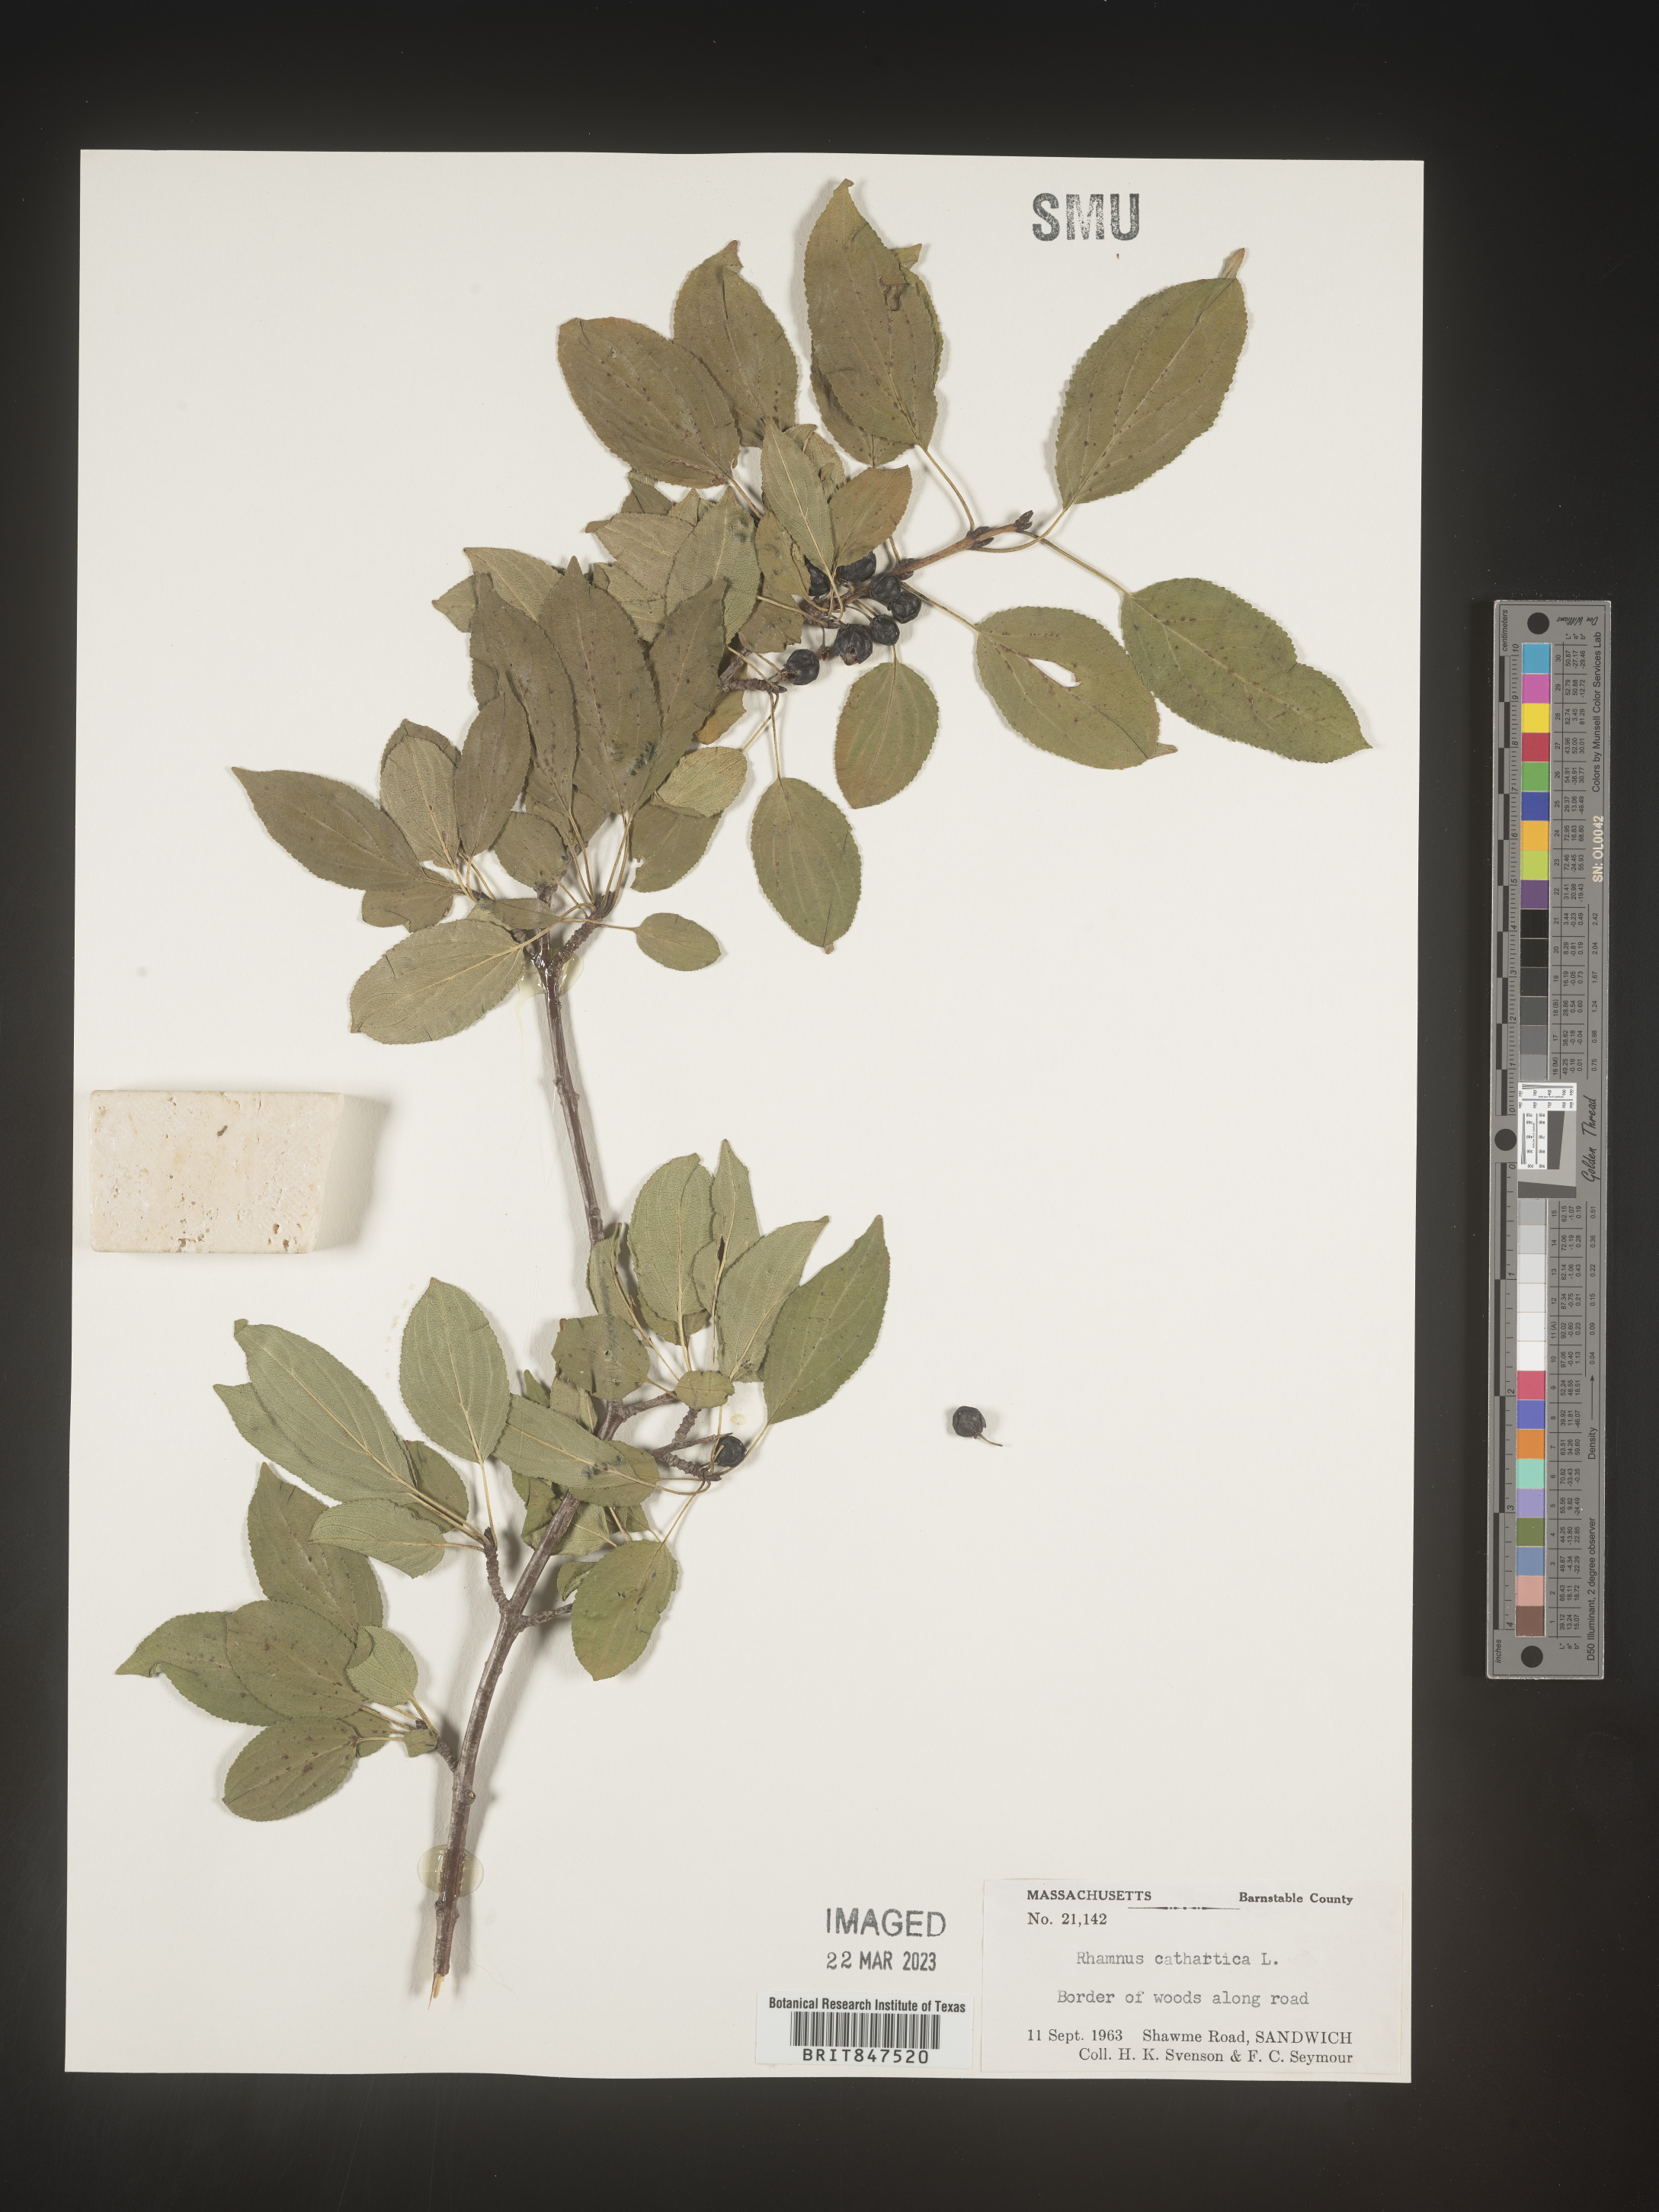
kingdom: Plantae
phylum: Tracheophyta
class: Magnoliopsida
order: Rosales
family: Rhamnaceae
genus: Rhamnus
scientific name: Rhamnus cathartica
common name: Common buckthorn
